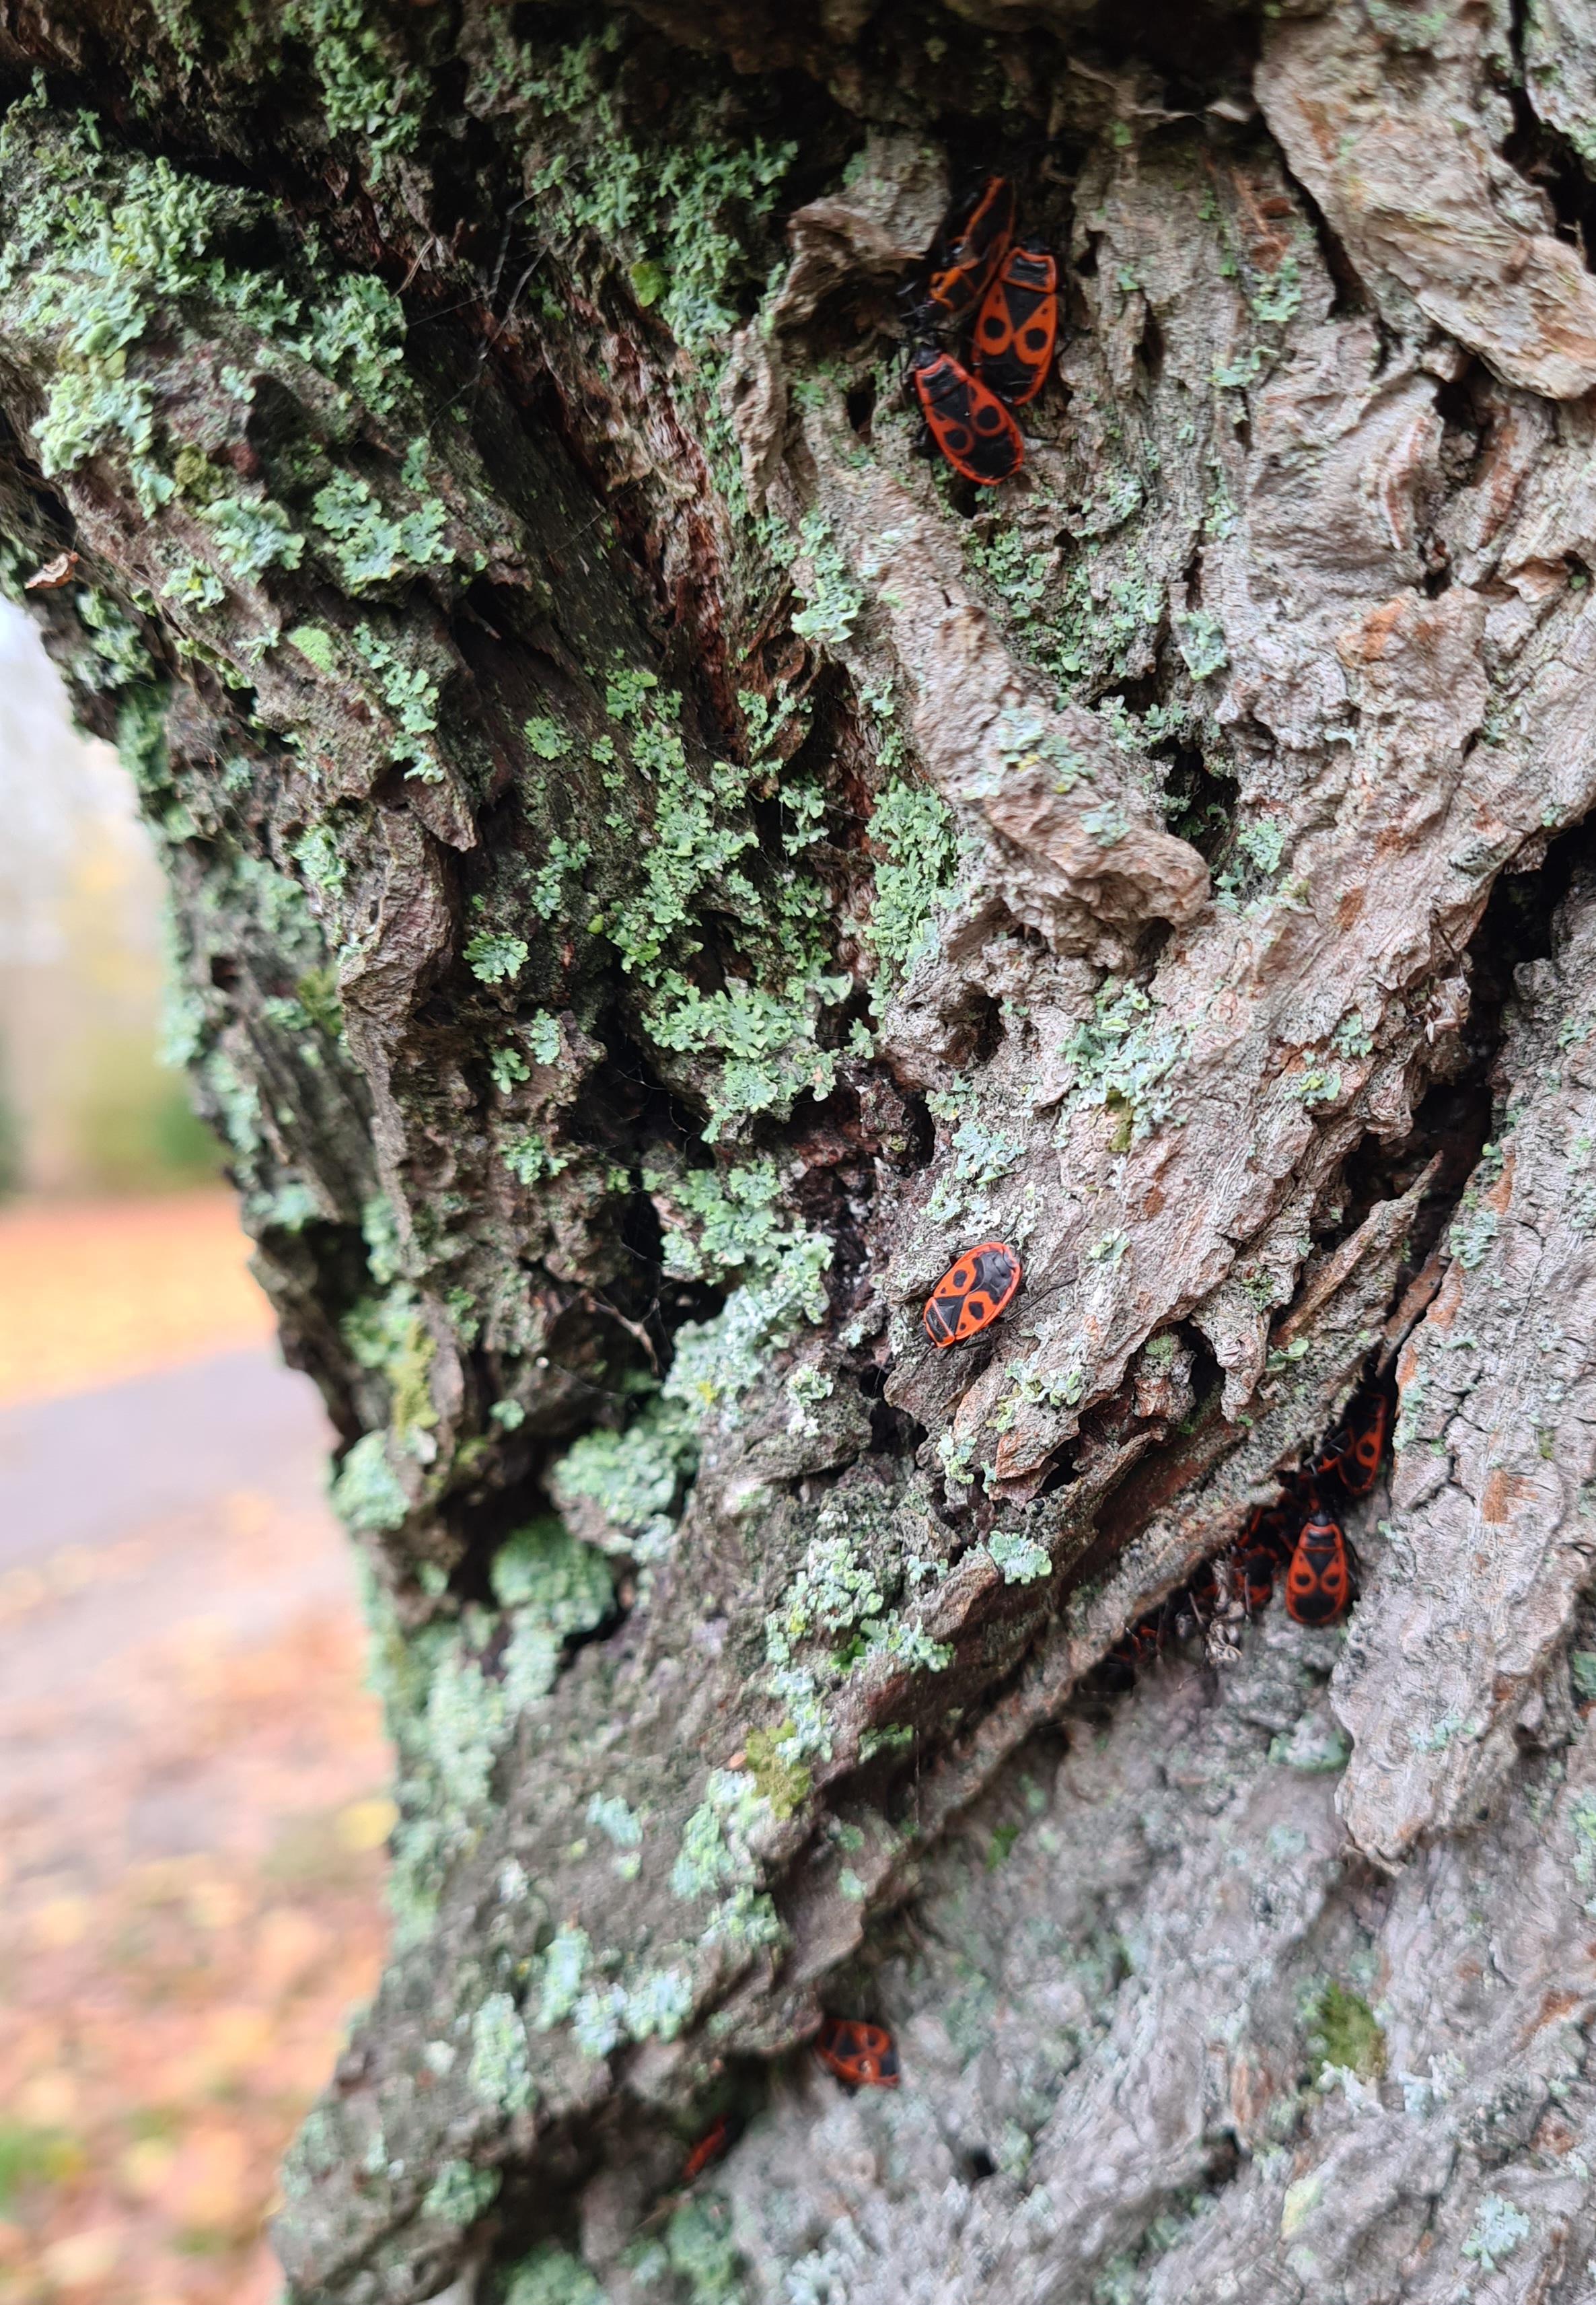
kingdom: Animalia
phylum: Arthropoda
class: Insecta
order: Hemiptera
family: Pyrrhocoridae
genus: Pyrrhocoris
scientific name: Pyrrhocoris apterus
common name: Ildtæge
